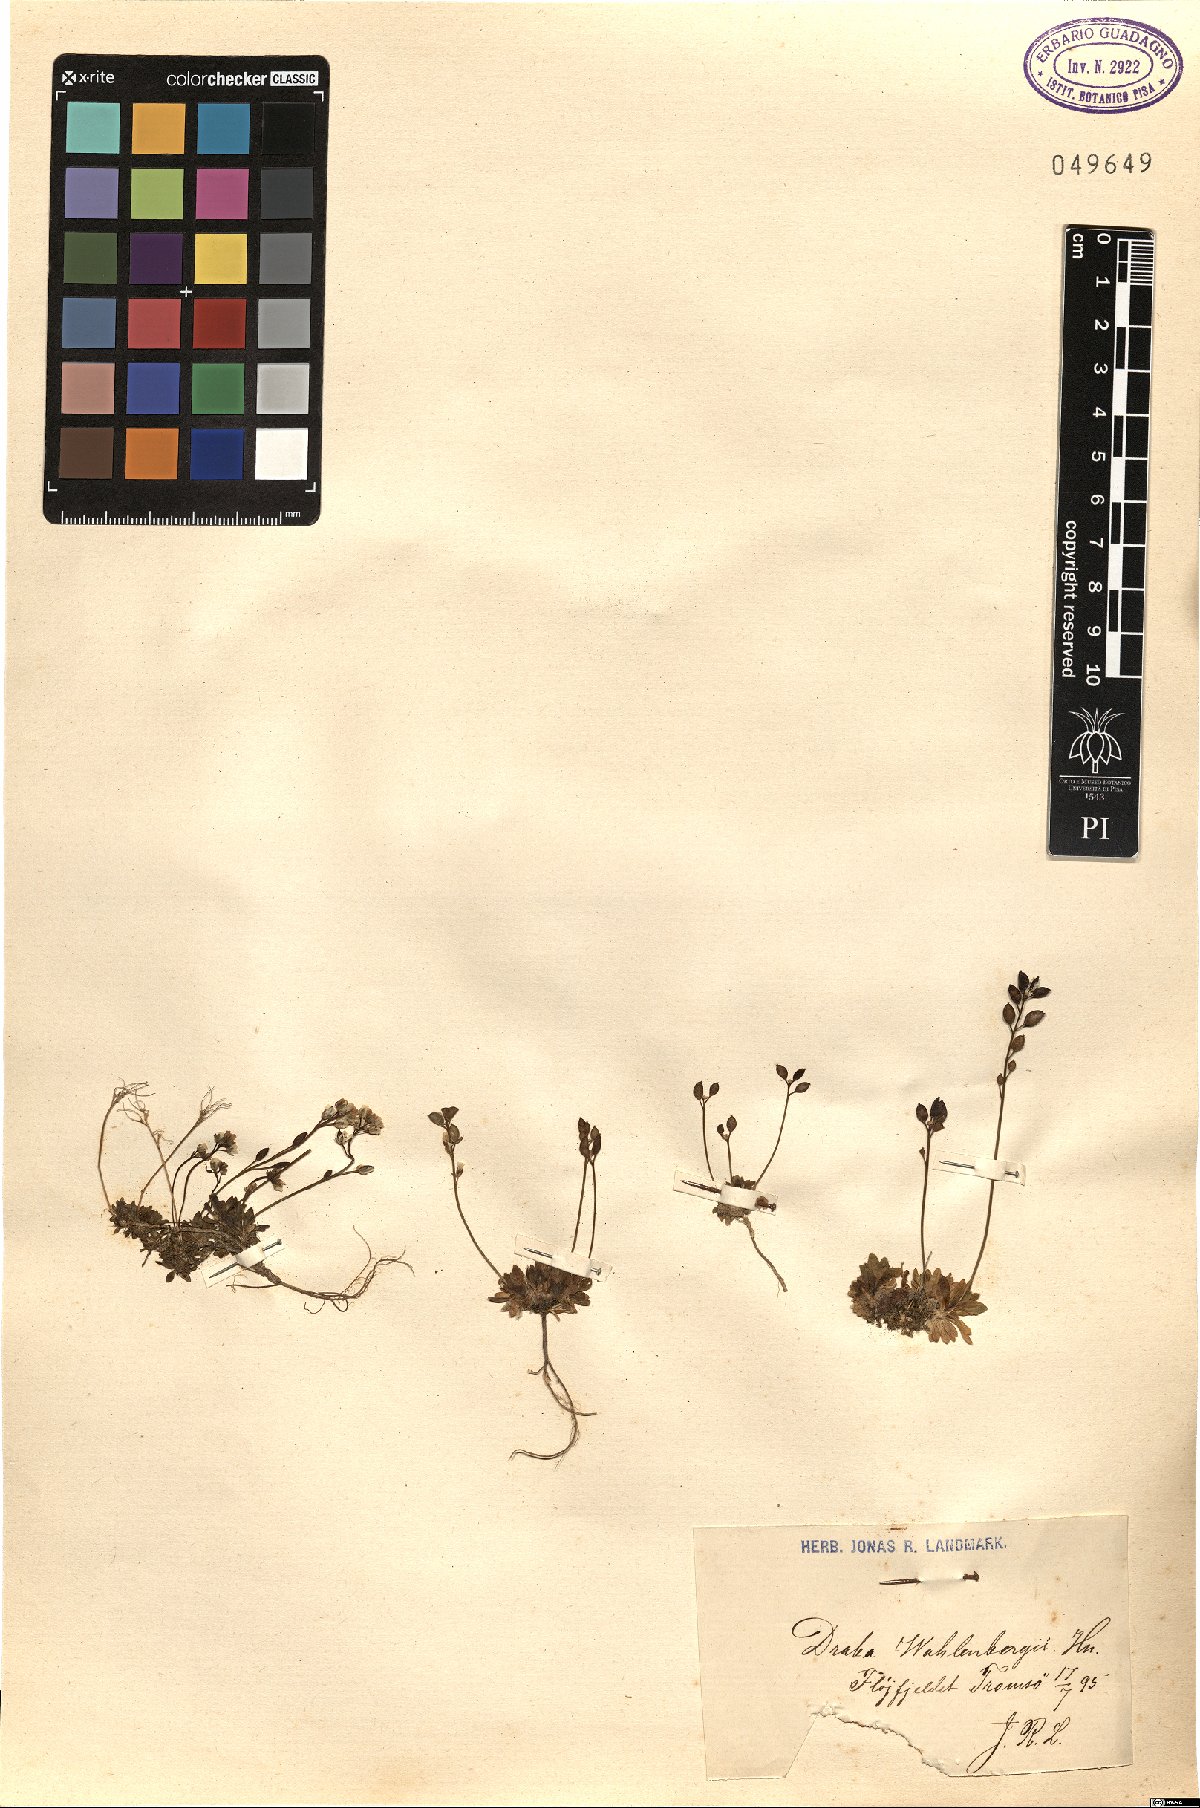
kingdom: Plantae
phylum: Tracheophyta
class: Magnoliopsida
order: Brassicales
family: Brassicaceae
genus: Draba
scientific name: Draba lactea
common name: Milky draba
